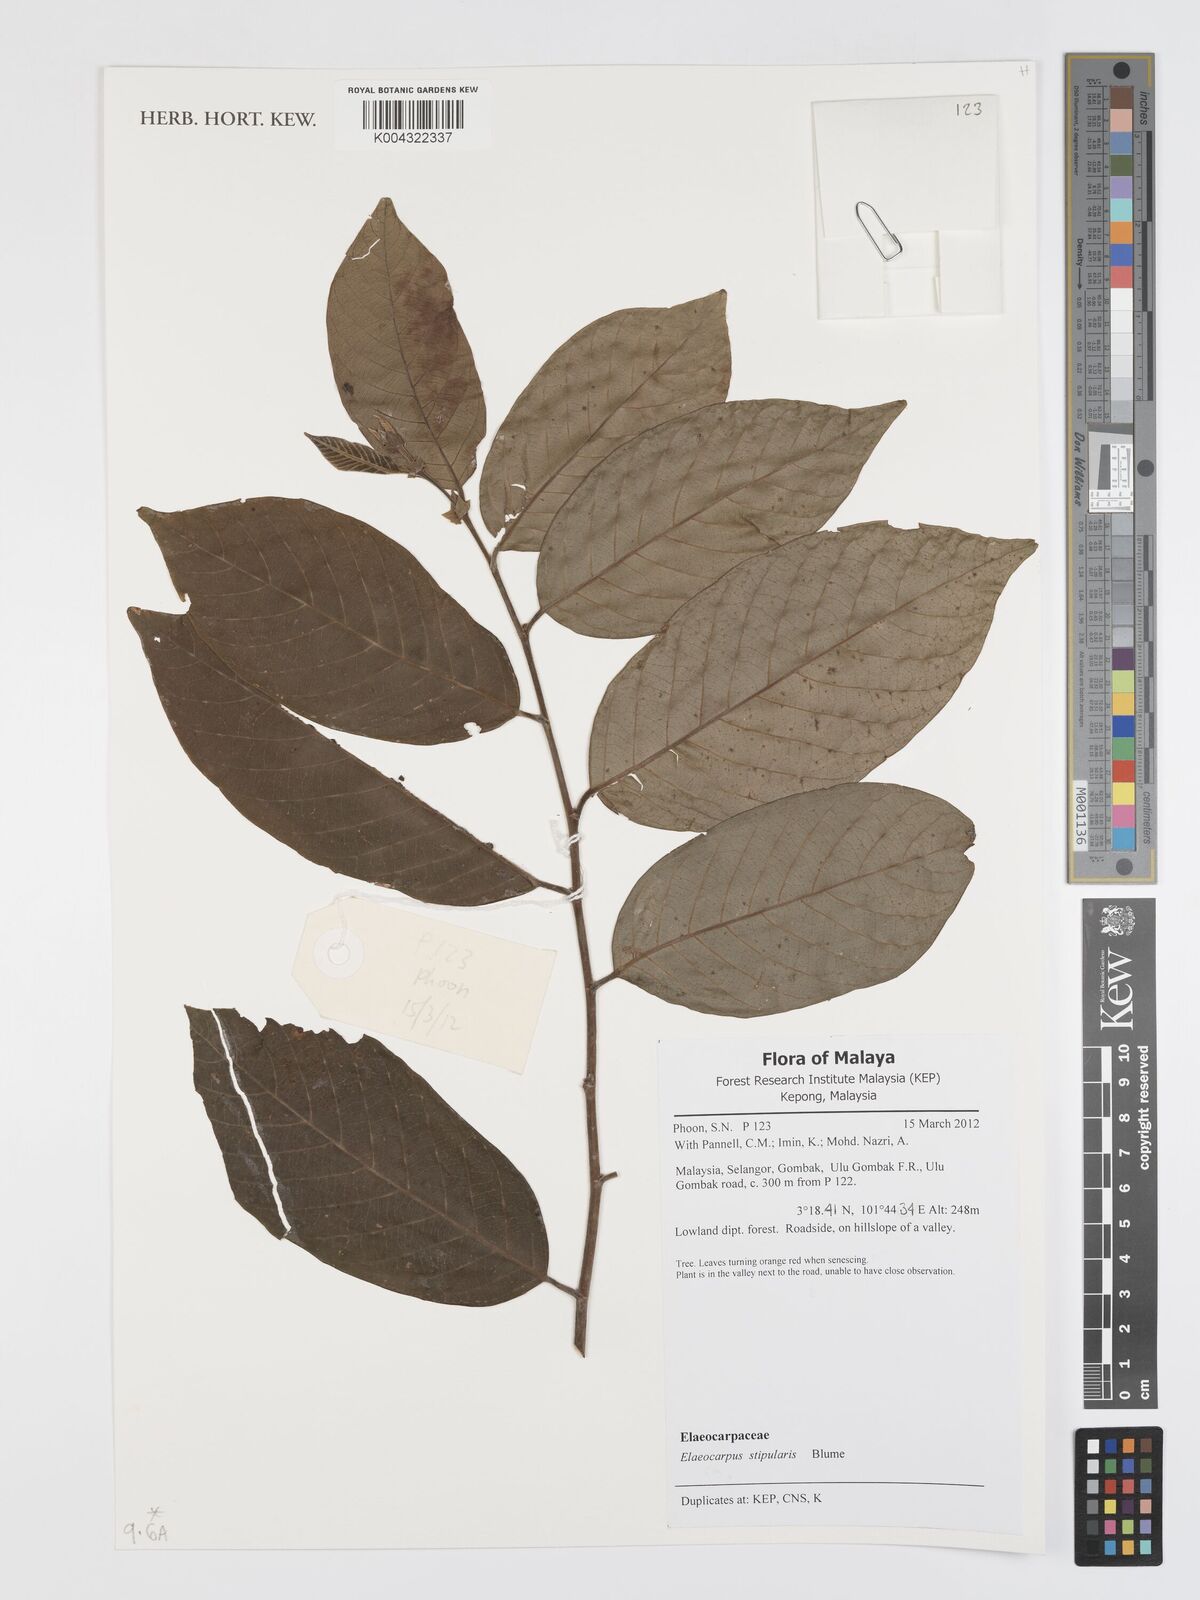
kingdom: Plantae
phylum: Tracheophyta
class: Magnoliopsida
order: Oxalidales
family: Elaeocarpaceae
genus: Elaeocarpus
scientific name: Elaeocarpus stipularis
